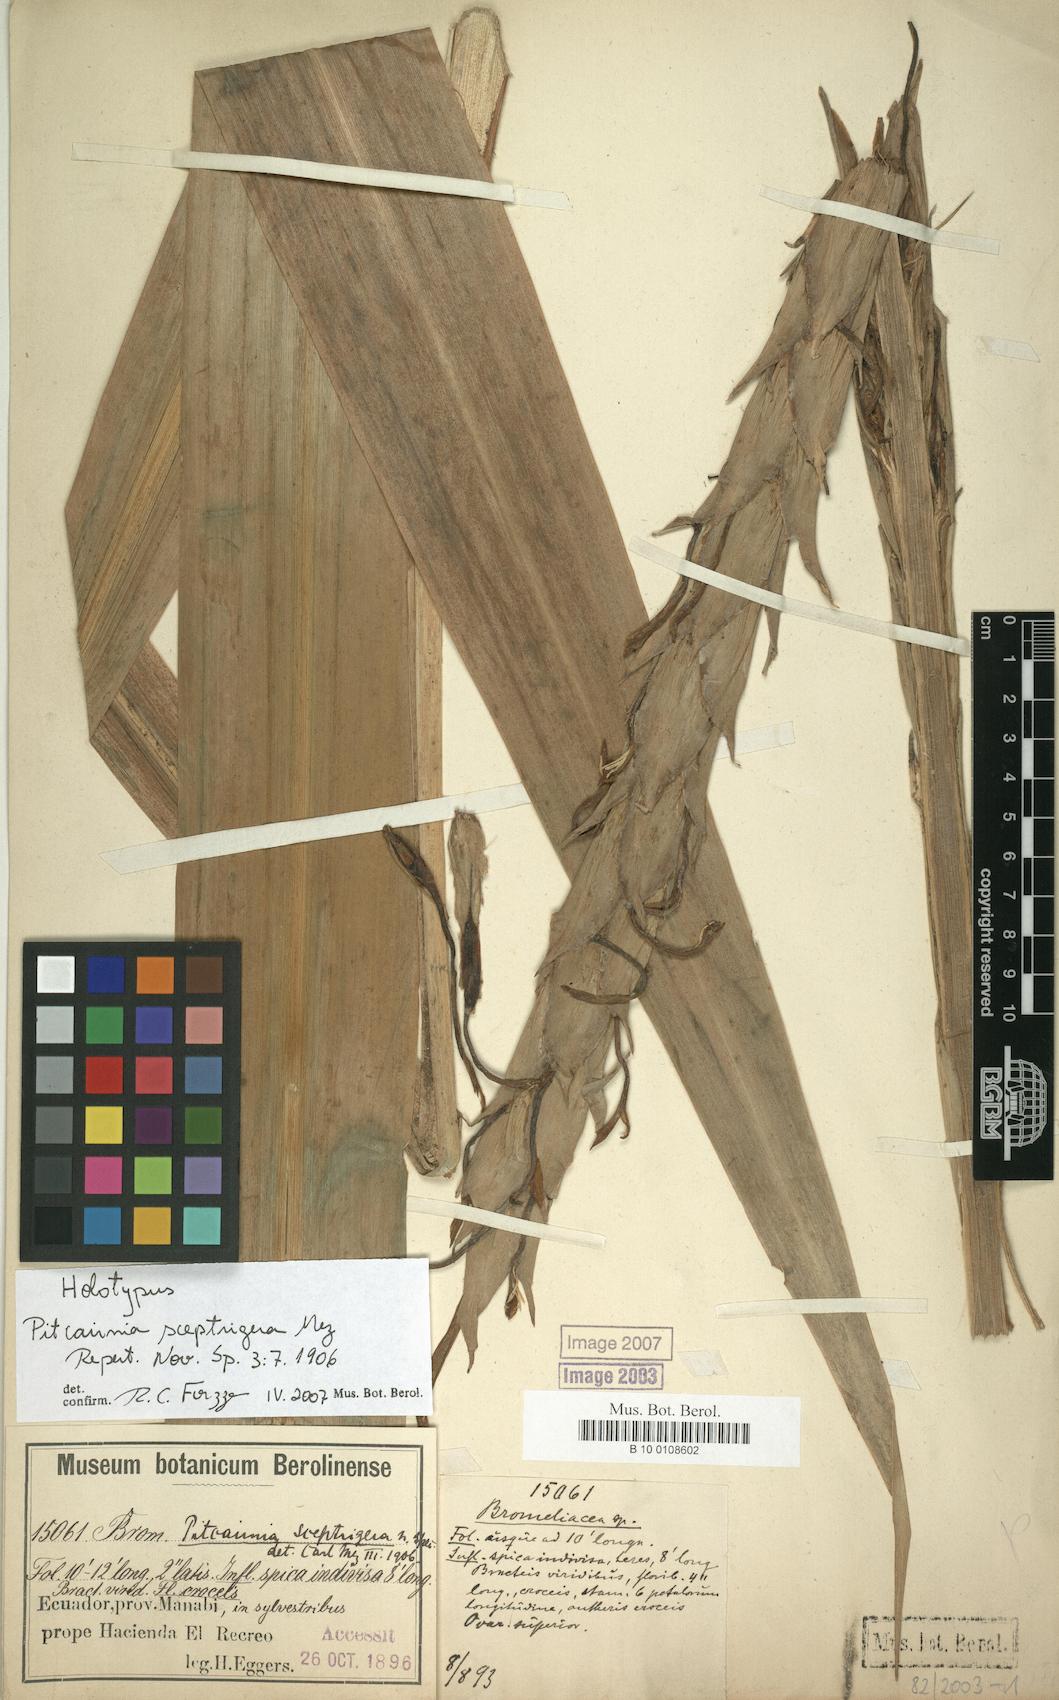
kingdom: Plantae
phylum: Tracheophyta
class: Liliopsida
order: Poales
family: Bromeliaceae
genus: Pitcairnia
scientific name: Pitcairnia sceptrigera
